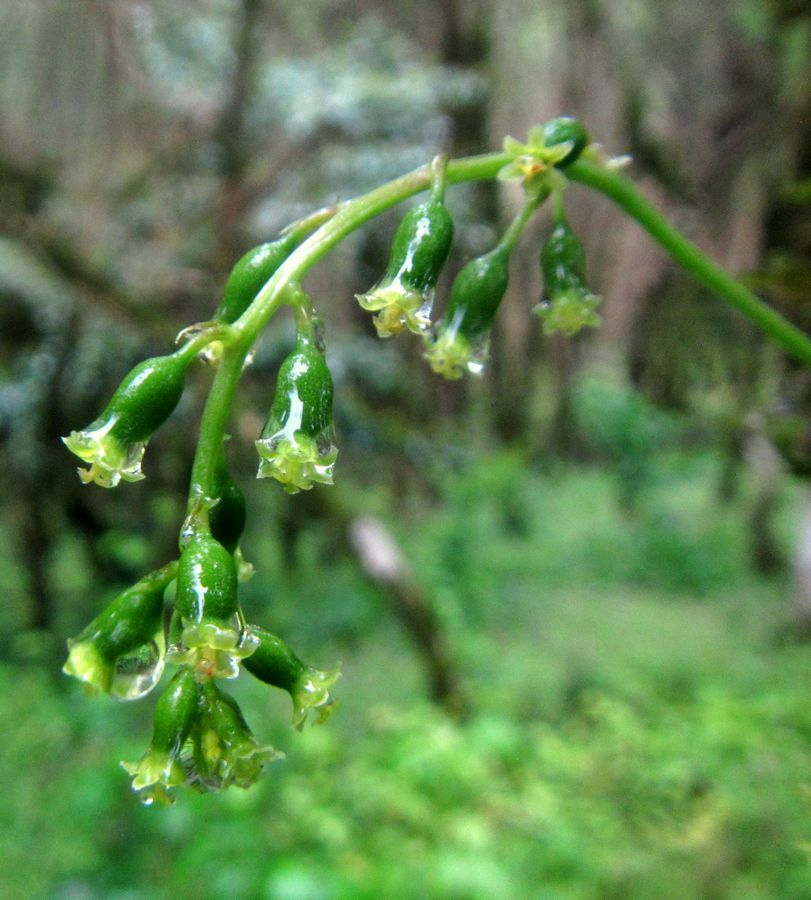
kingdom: Plantae
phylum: Tracheophyta
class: Liliopsida
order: Dioscoreales
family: Dioscoreaceae
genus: Dioscorea
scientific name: Dioscorea caucasica
